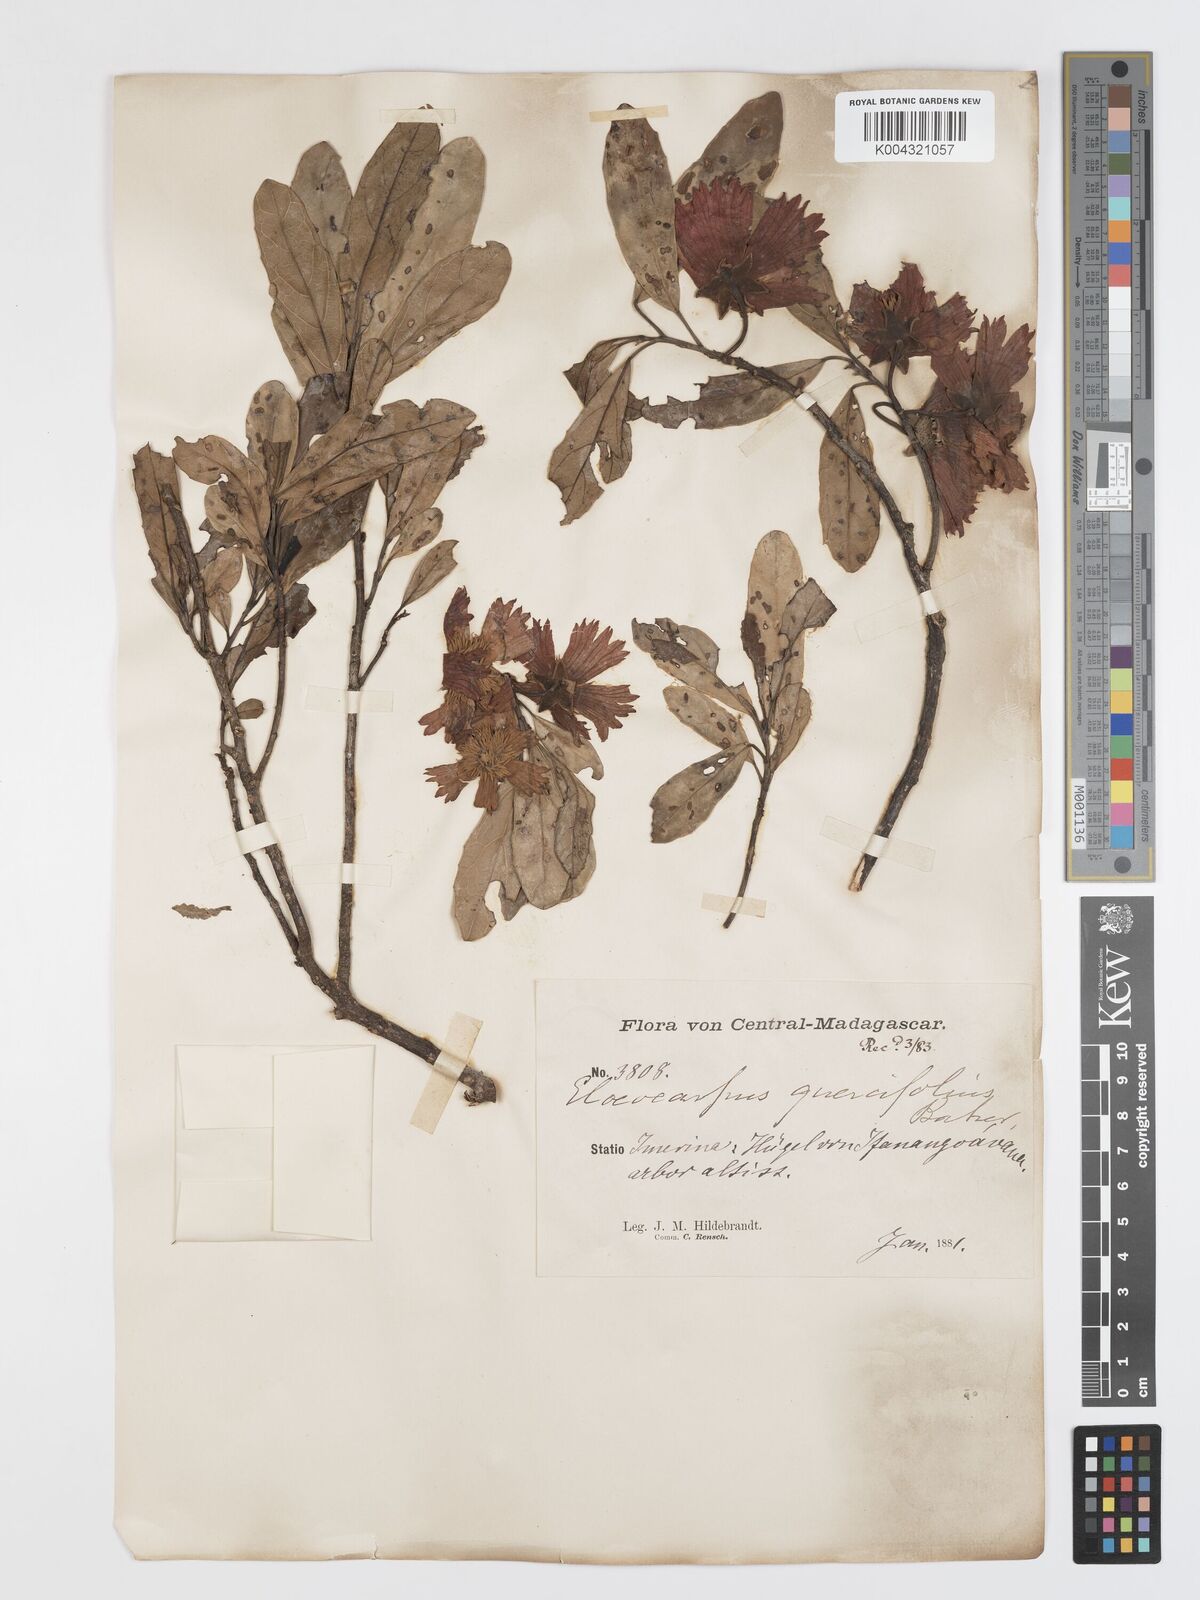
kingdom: Plantae
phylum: Tracheophyta
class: Magnoliopsida
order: Oxalidales
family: Elaeocarpaceae
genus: Sloanea
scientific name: Sloanea rhodantha
